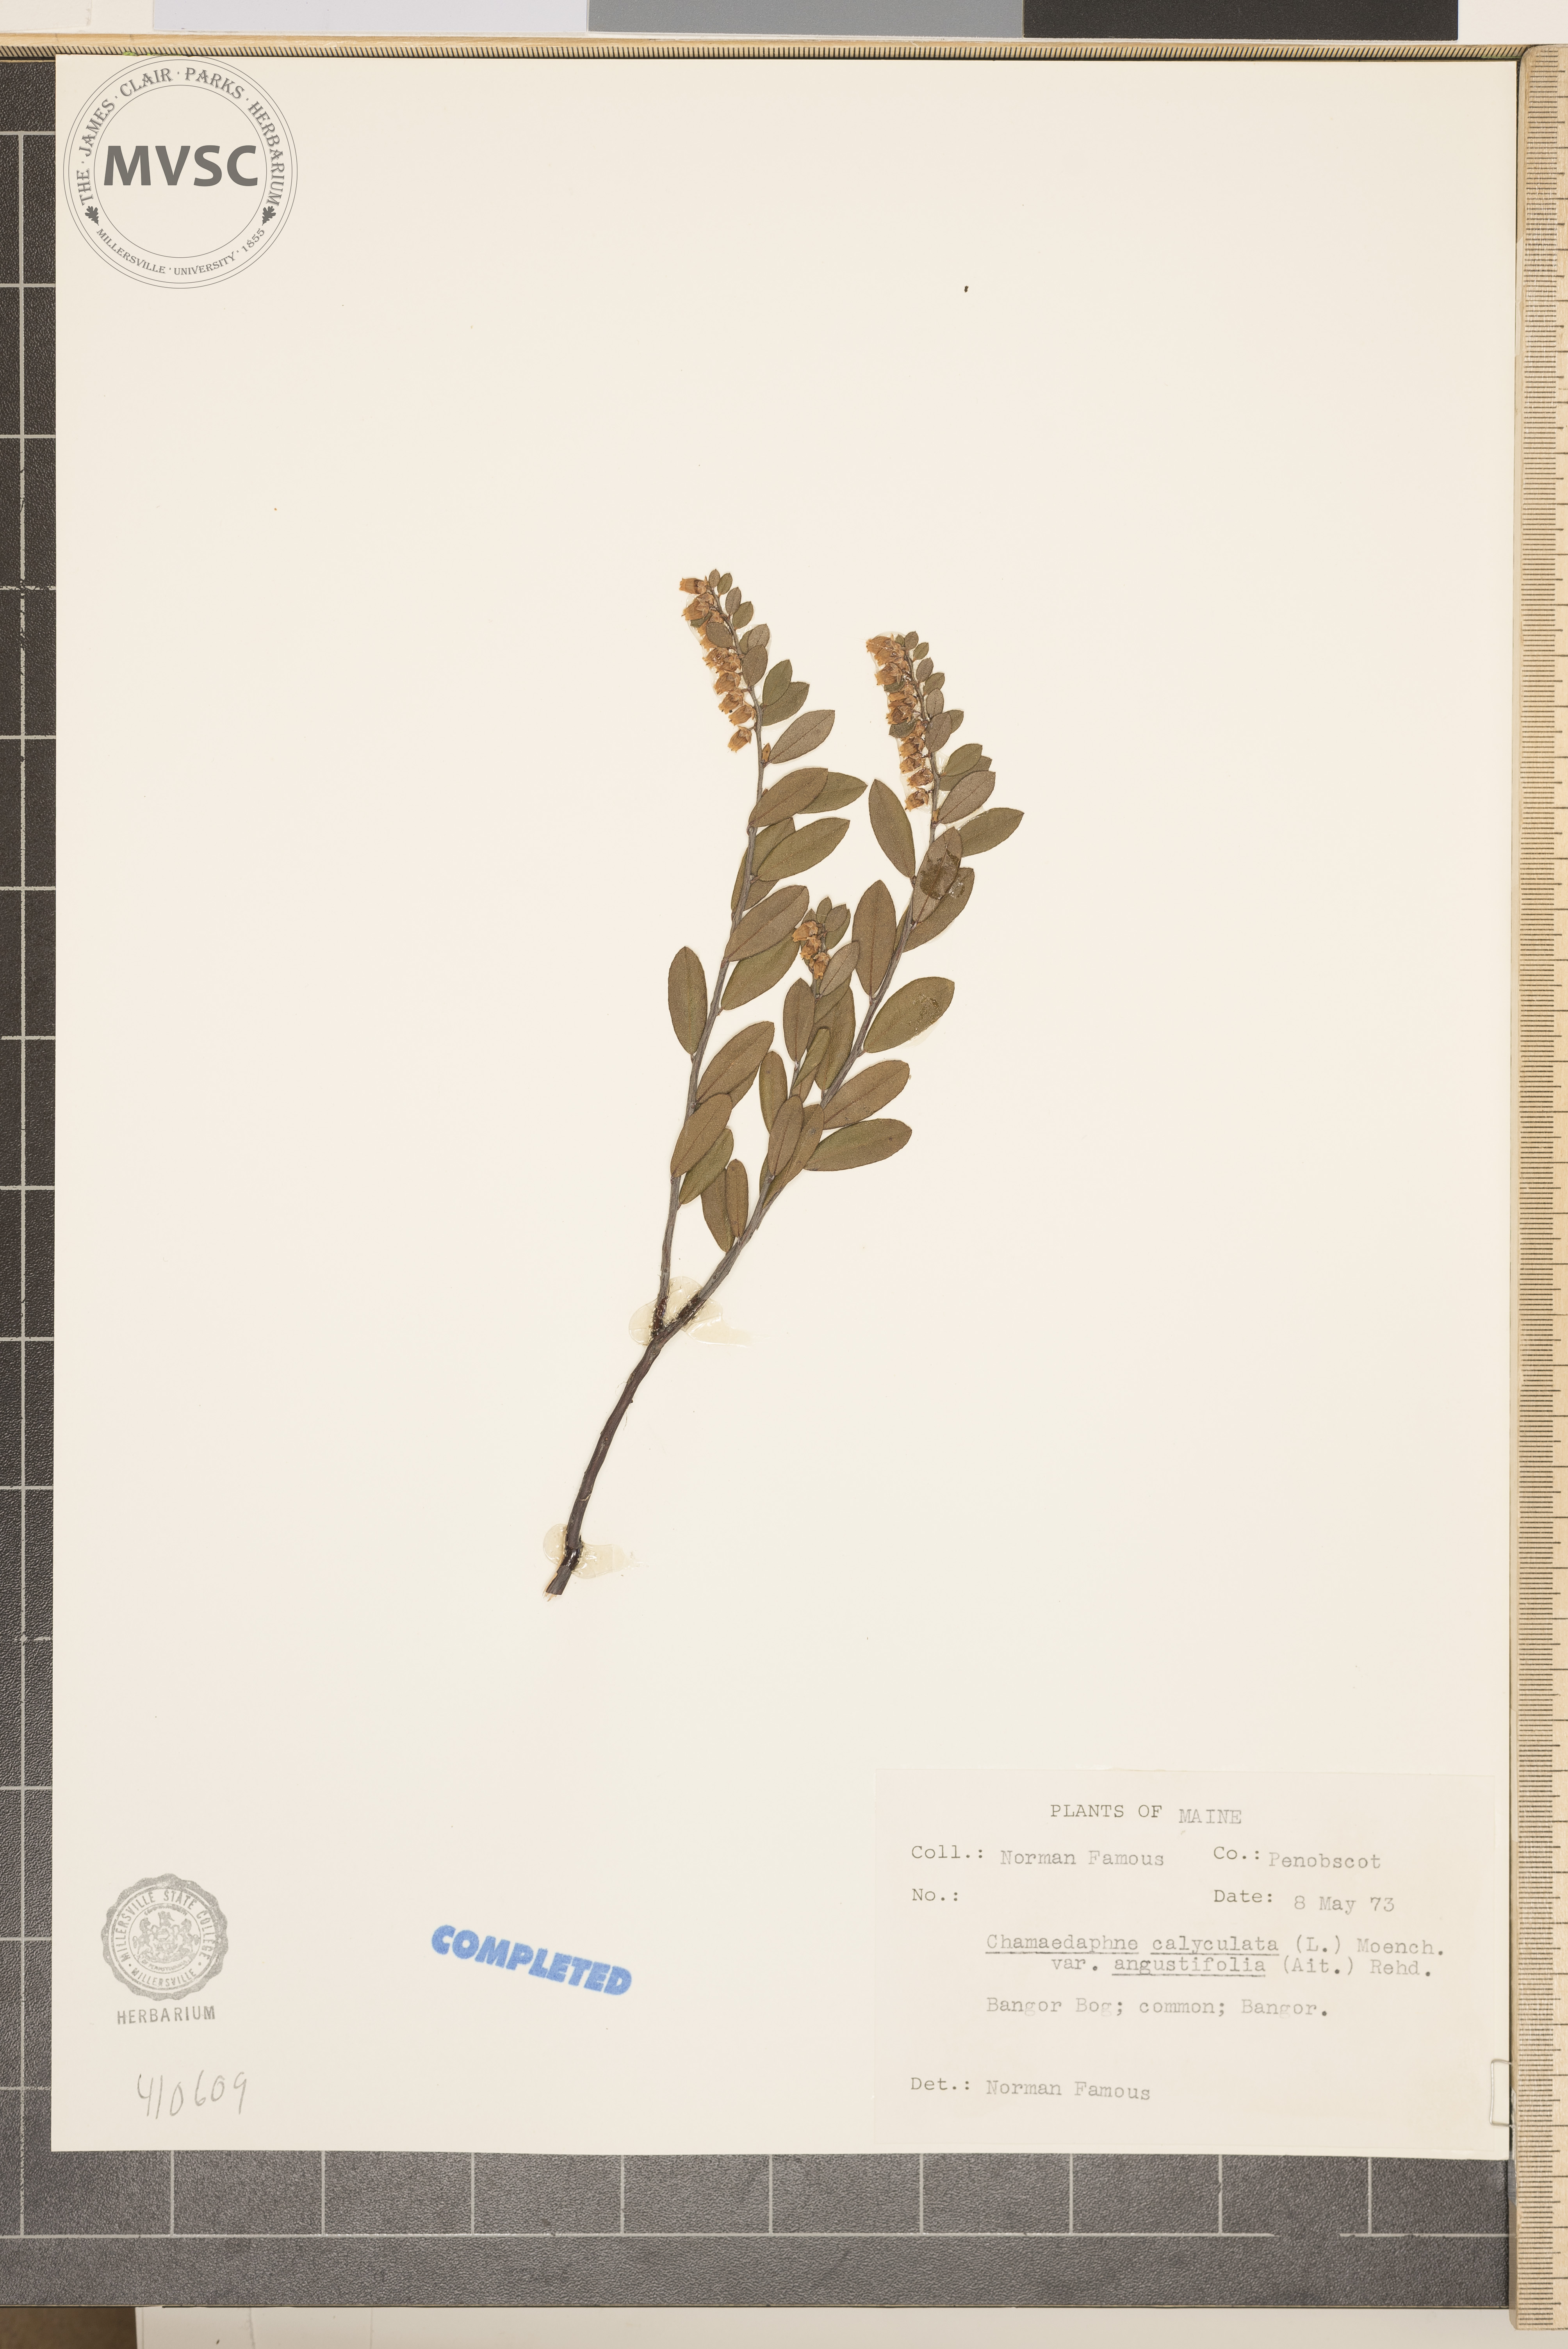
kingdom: Plantae
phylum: Tracheophyta
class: Magnoliopsida
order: Ericales
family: Ericaceae
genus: Chamaedaphne
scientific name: Chamaedaphne calyculata
